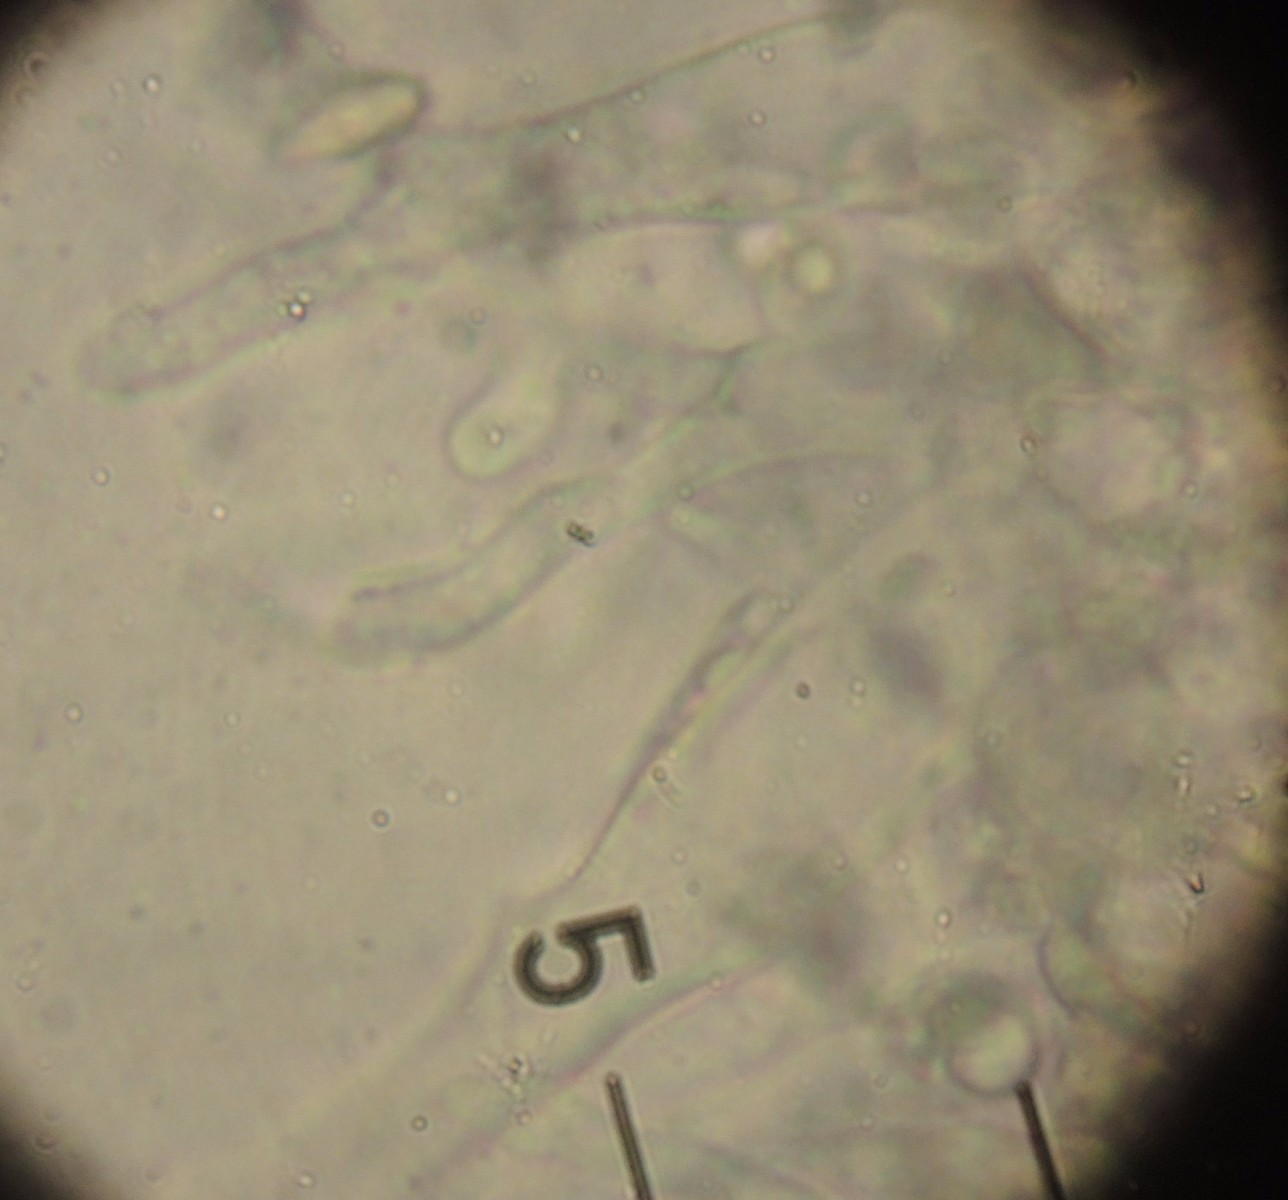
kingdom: Fungi
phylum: Basidiomycota
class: Agaricomycetes
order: Agaricales
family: Mycenaceae
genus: Mycena
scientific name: Mycena galopus
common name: hvidmælket huesvamp
